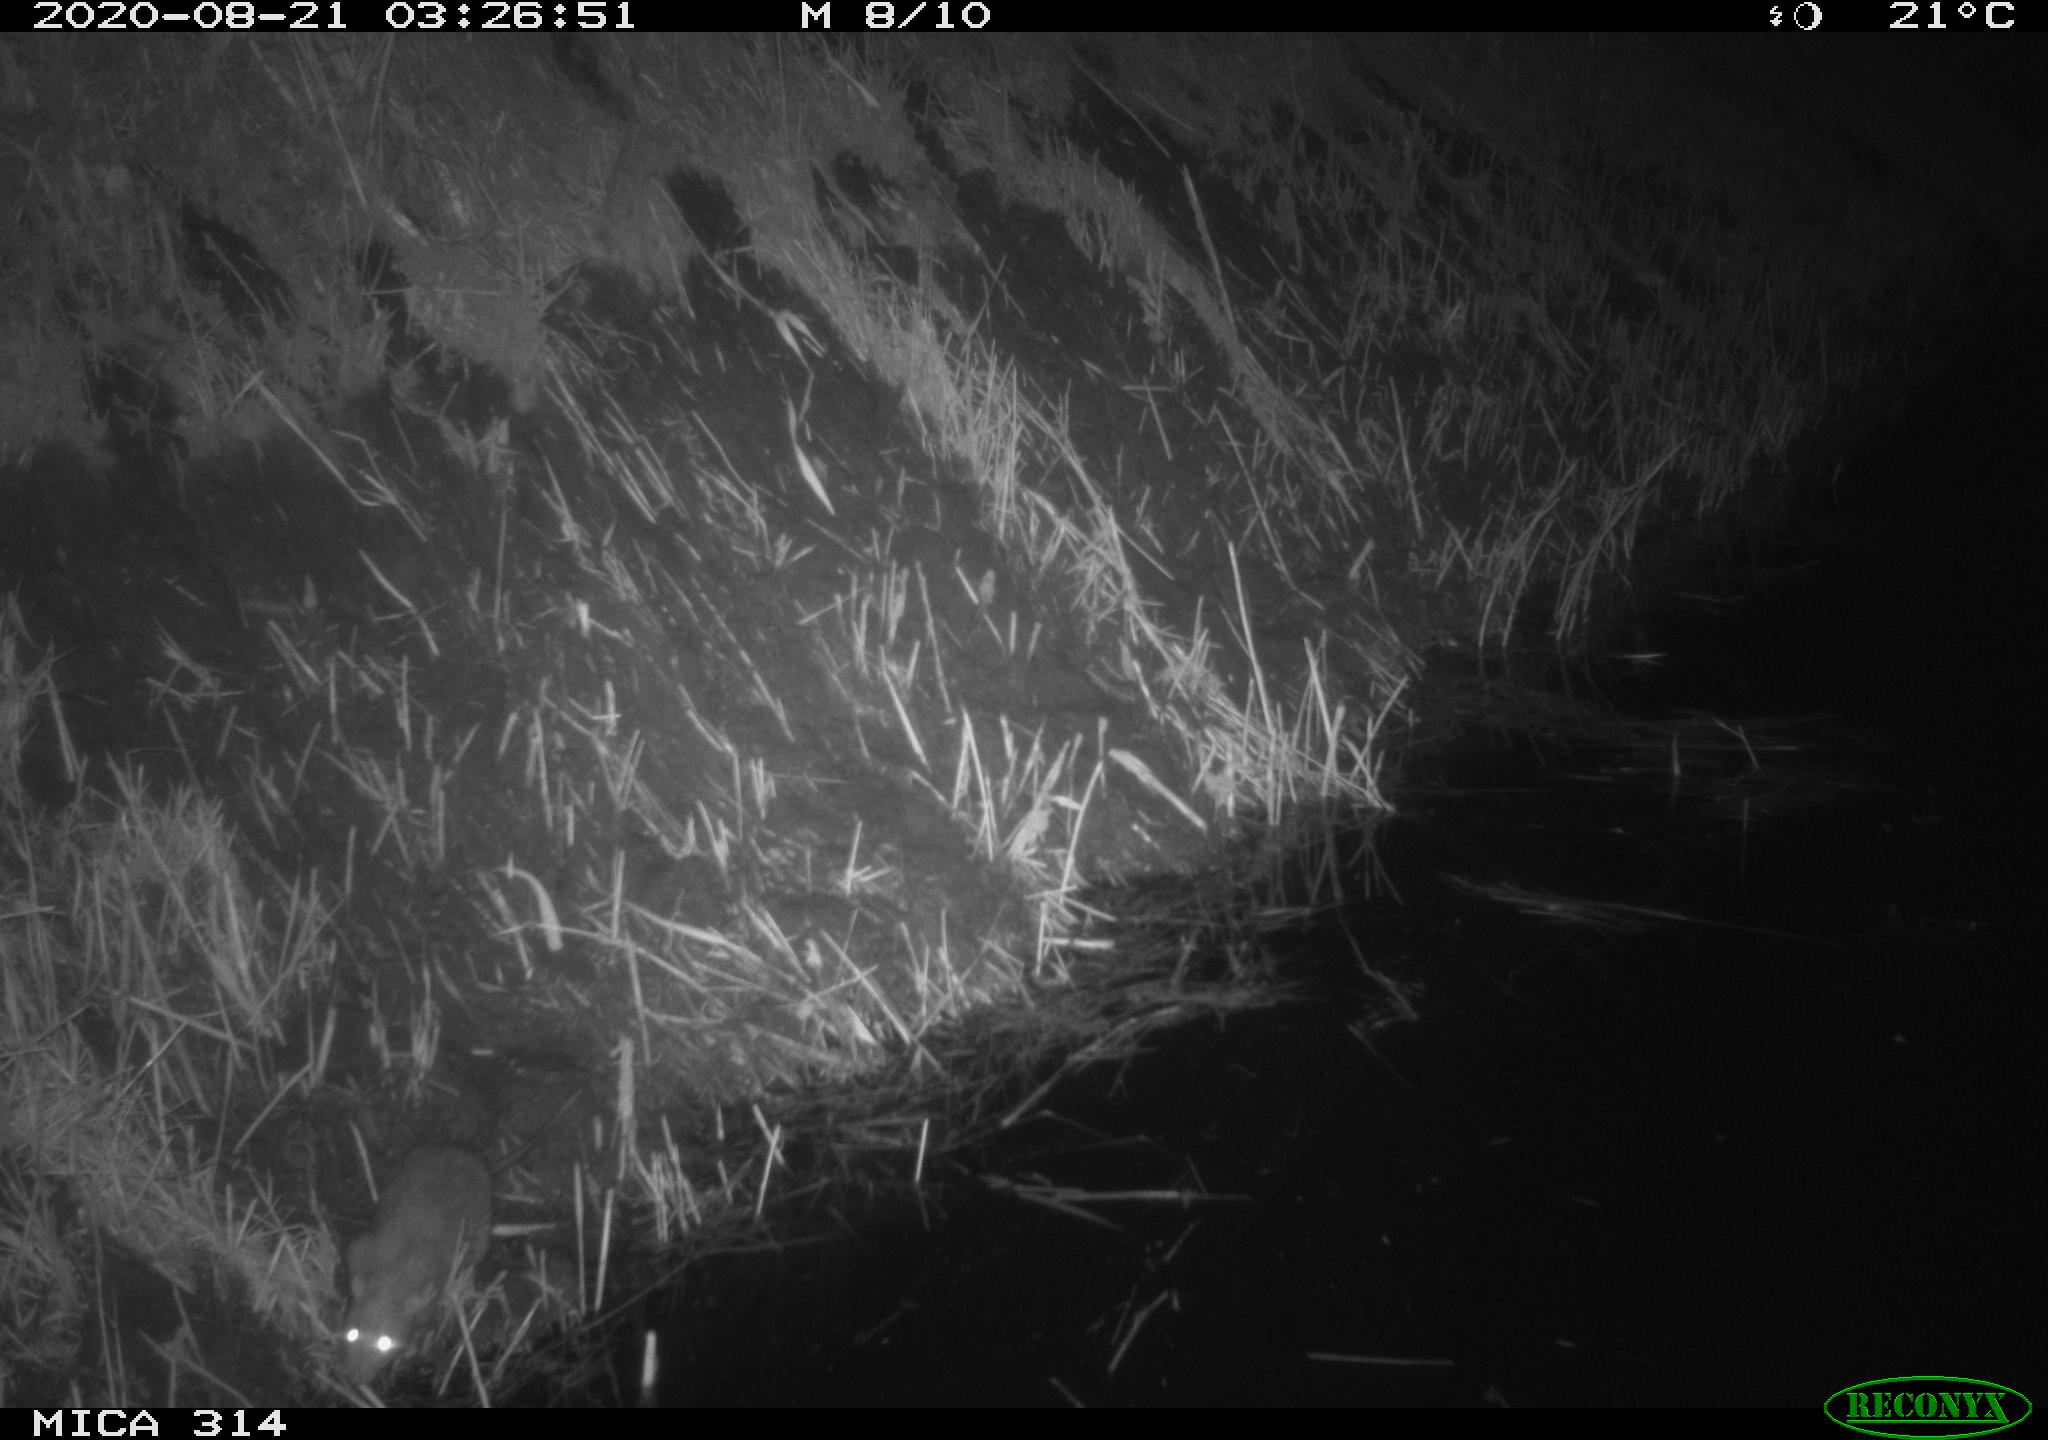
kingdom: Animalia
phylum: Chordata
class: Mammalia
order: Rodentia
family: Muridae
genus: Rattus
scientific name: Rattus norvegicus
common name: Brown rat
